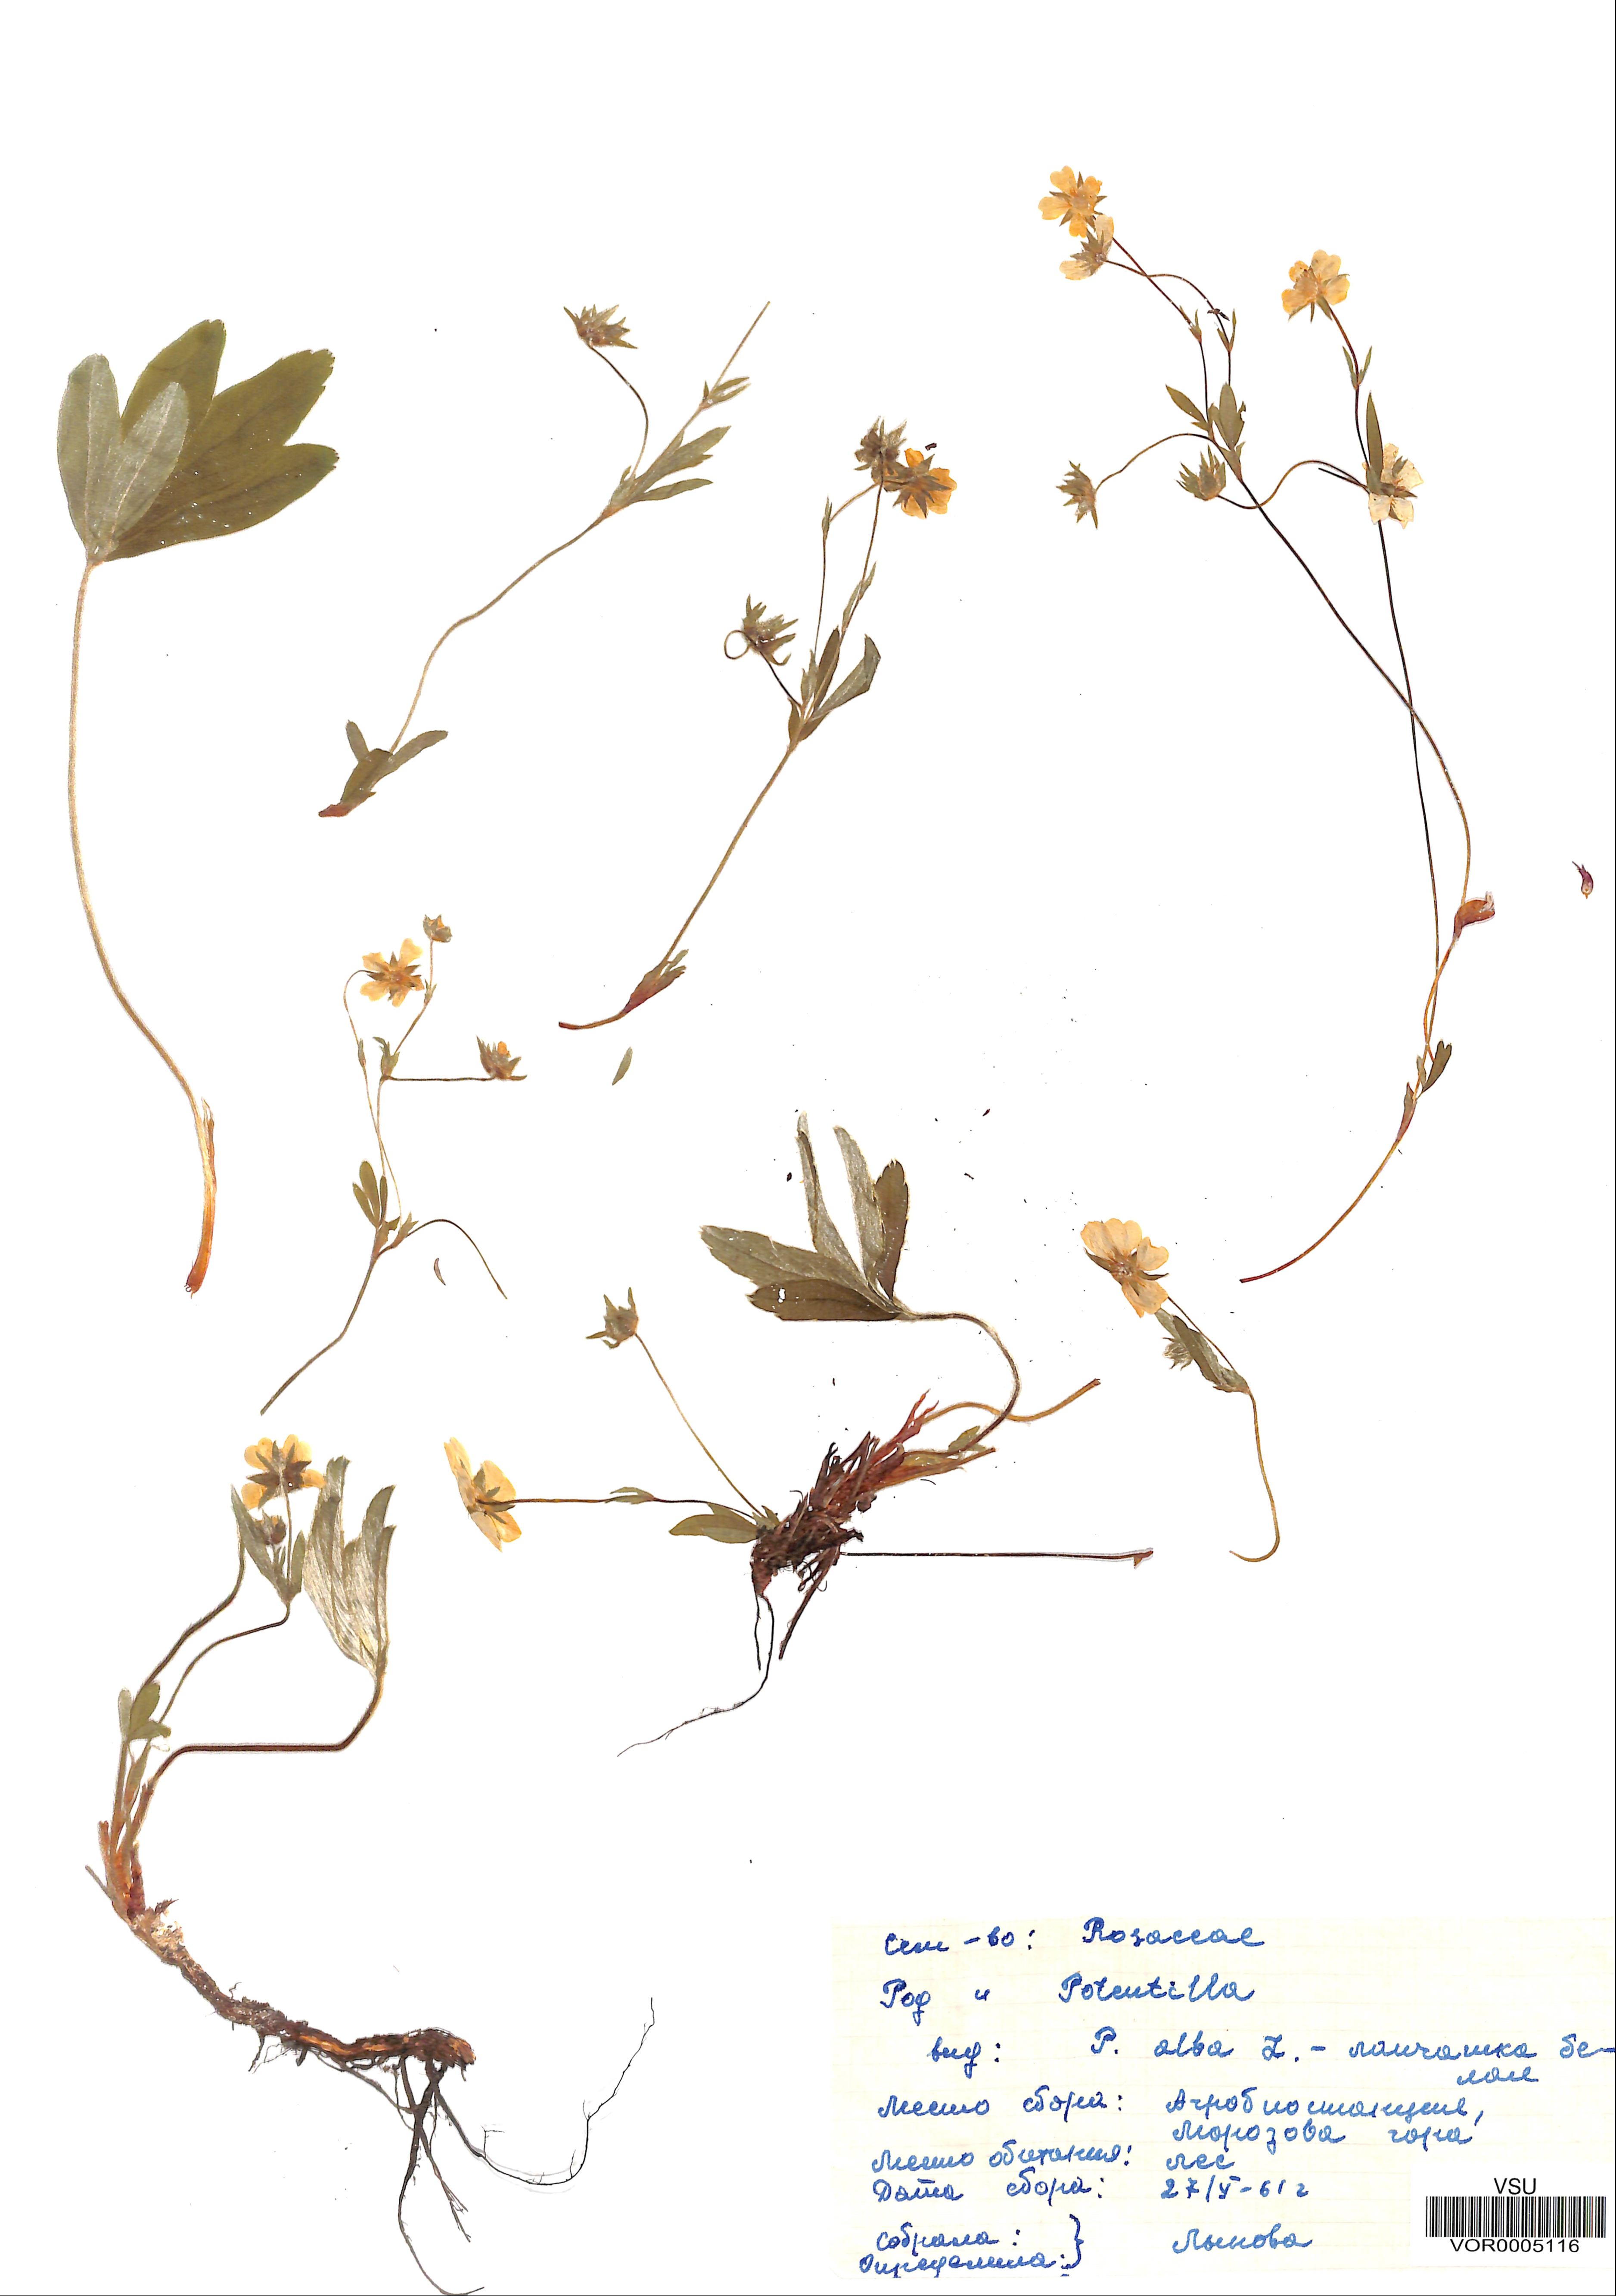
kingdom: Plantae
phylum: Tracheophyta
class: Magnoliopsida
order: Rosales
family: Rosaceae
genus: Potentilla
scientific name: Potentilla alba
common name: White cinquefoil
